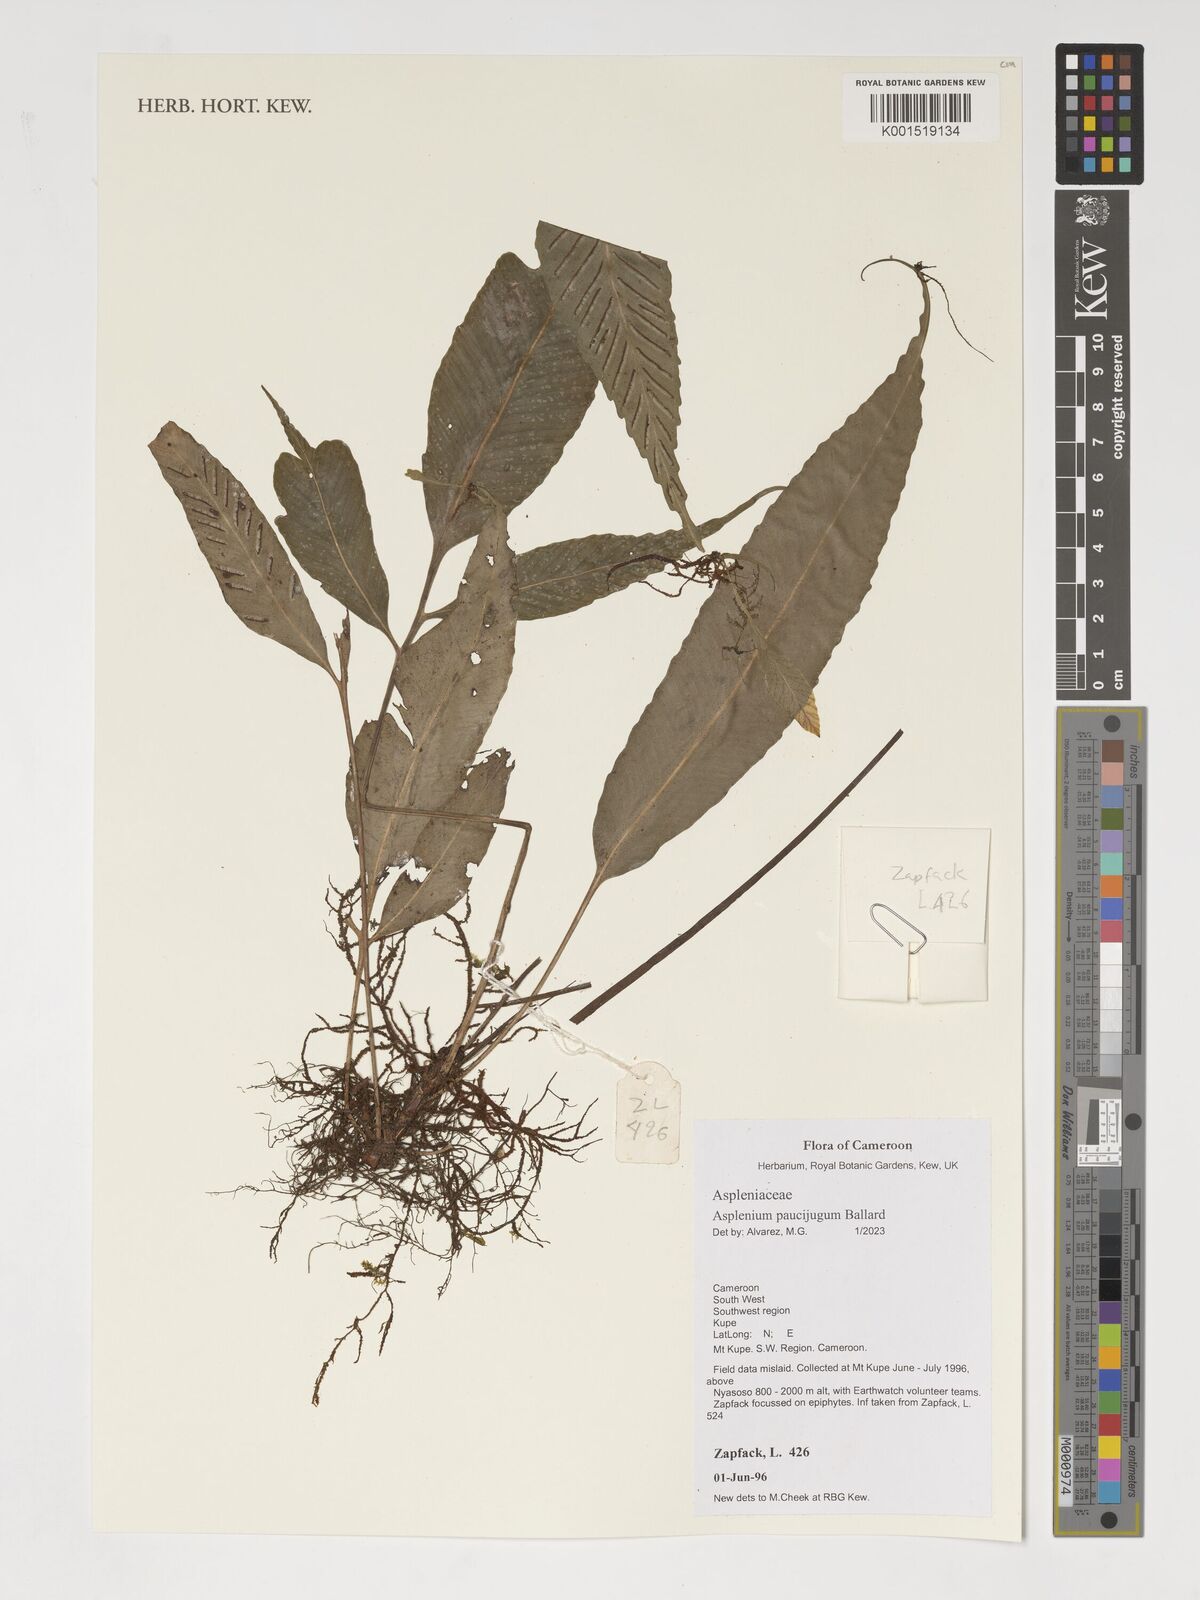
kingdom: Plantae
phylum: Tracheophyta
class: Polypodiopsida
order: Polypodiales
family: Aspleniaceae
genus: Asplenium
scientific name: Asplenium variabile
